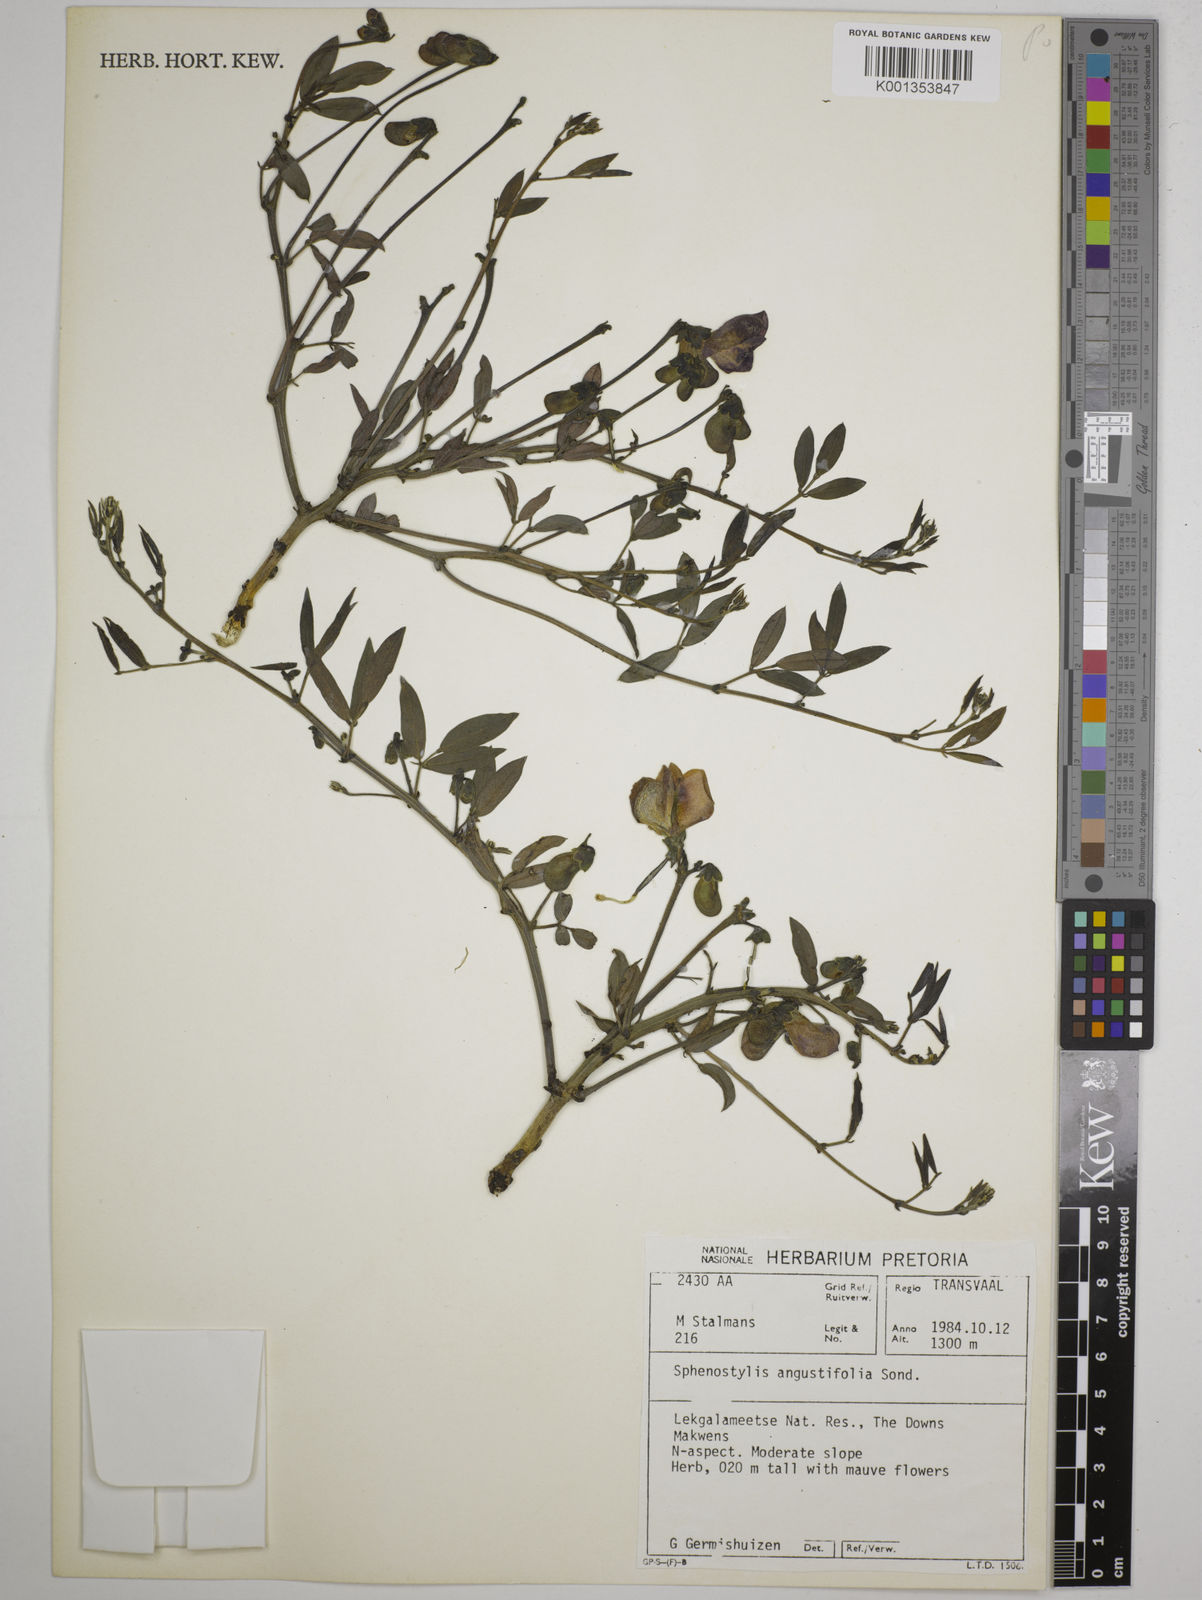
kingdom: Plantae
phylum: Tracheophyta
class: Magnoliopsida
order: Fabales
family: Fabaceae
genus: Sphenostylis
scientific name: Sphenostylis angustifolia
